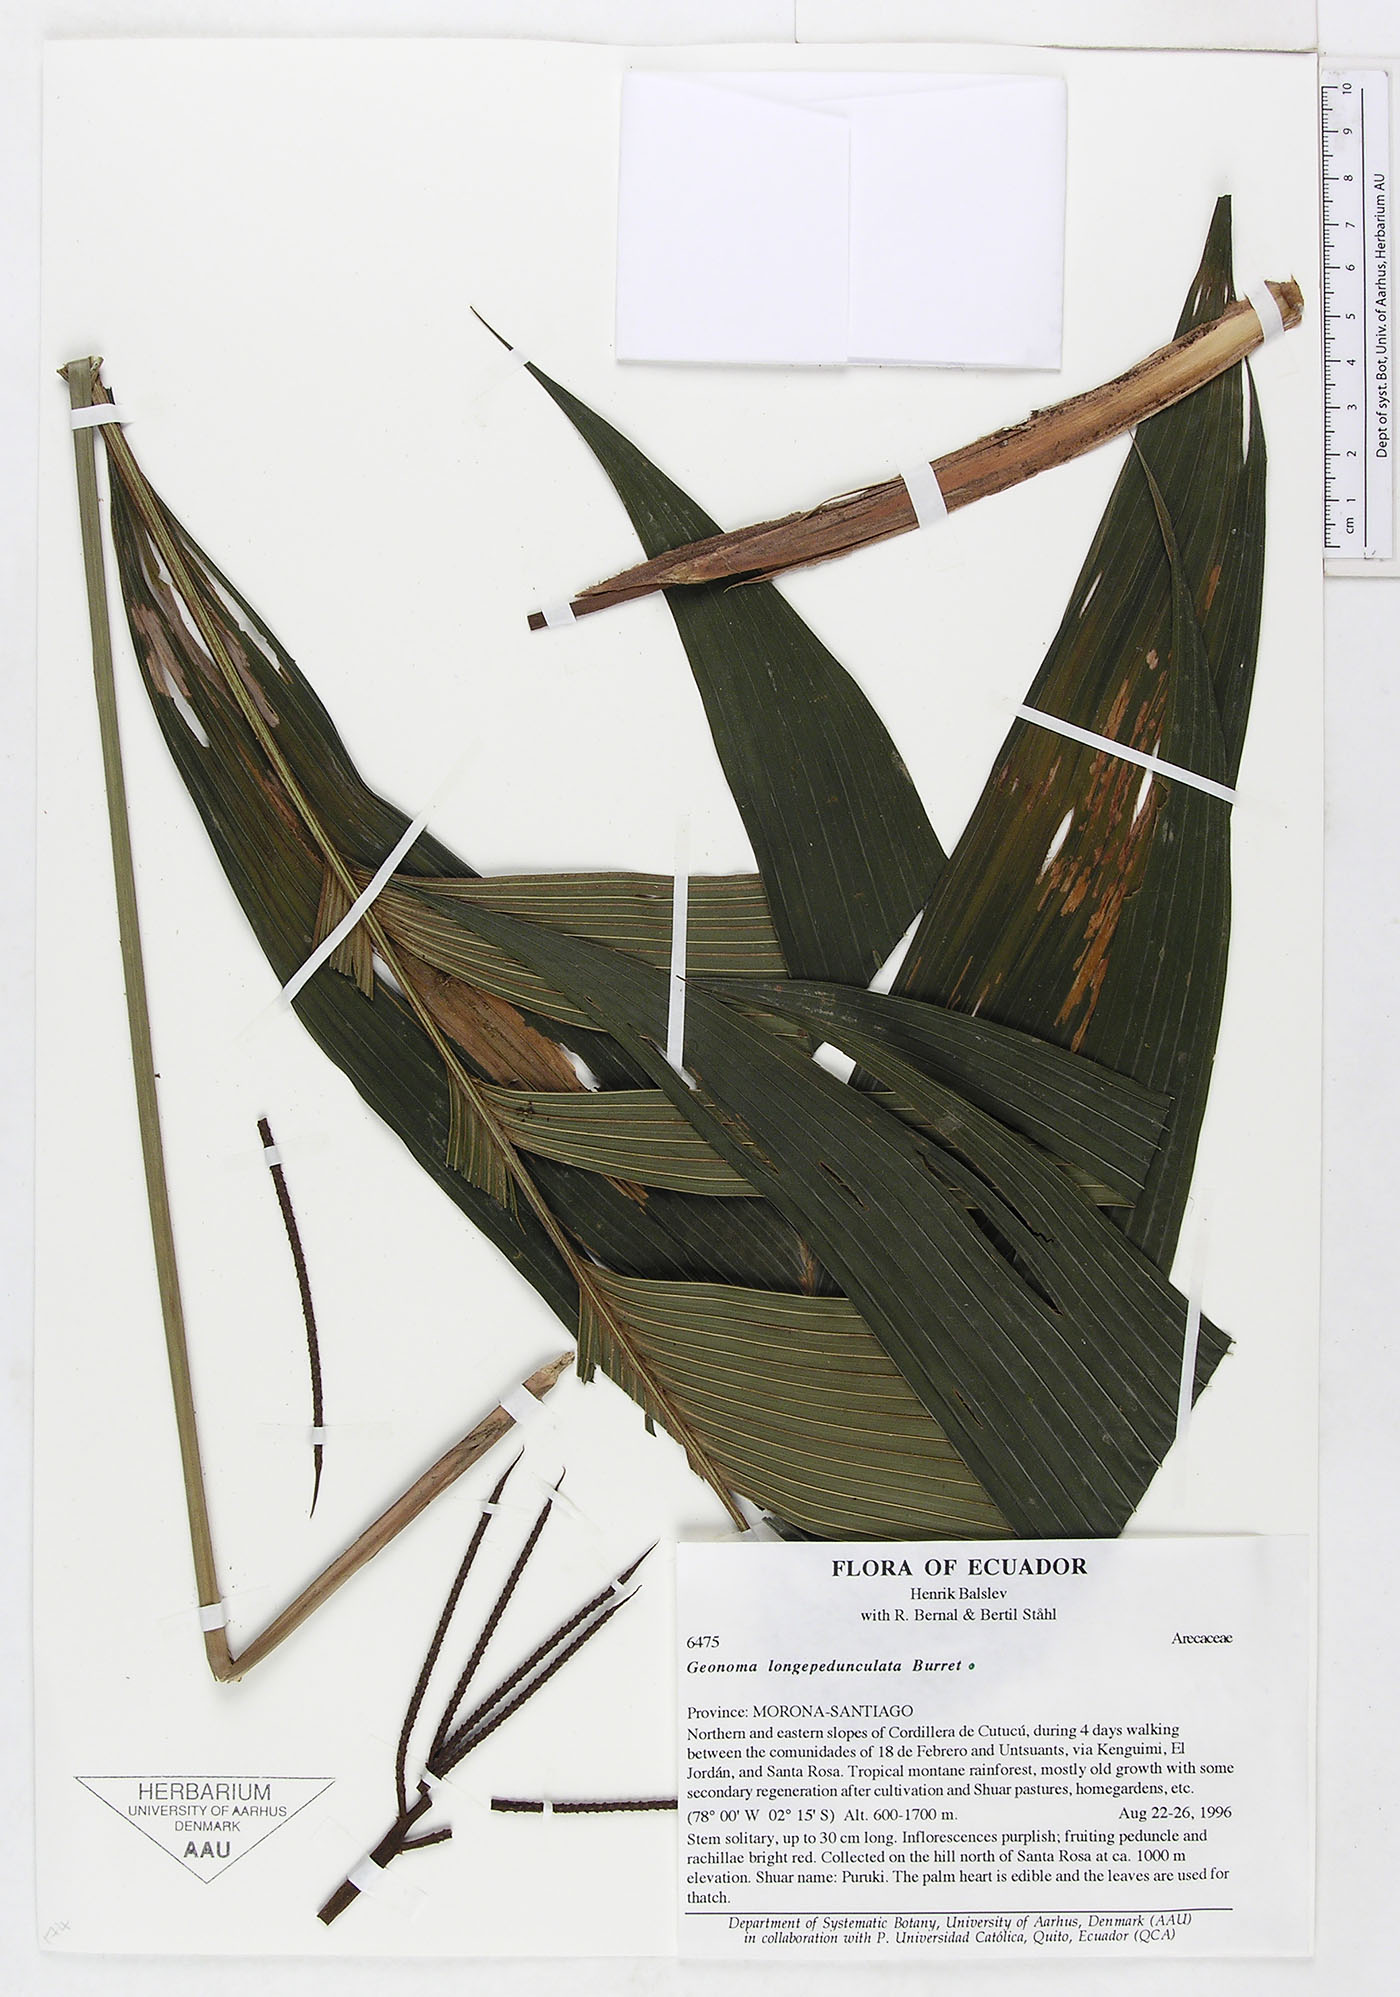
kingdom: Plantae
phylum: Tracheophyta
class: Liliopsida
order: Arecales
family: Arecaceae
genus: Geonoma
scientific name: Geonoma longepedunculata
